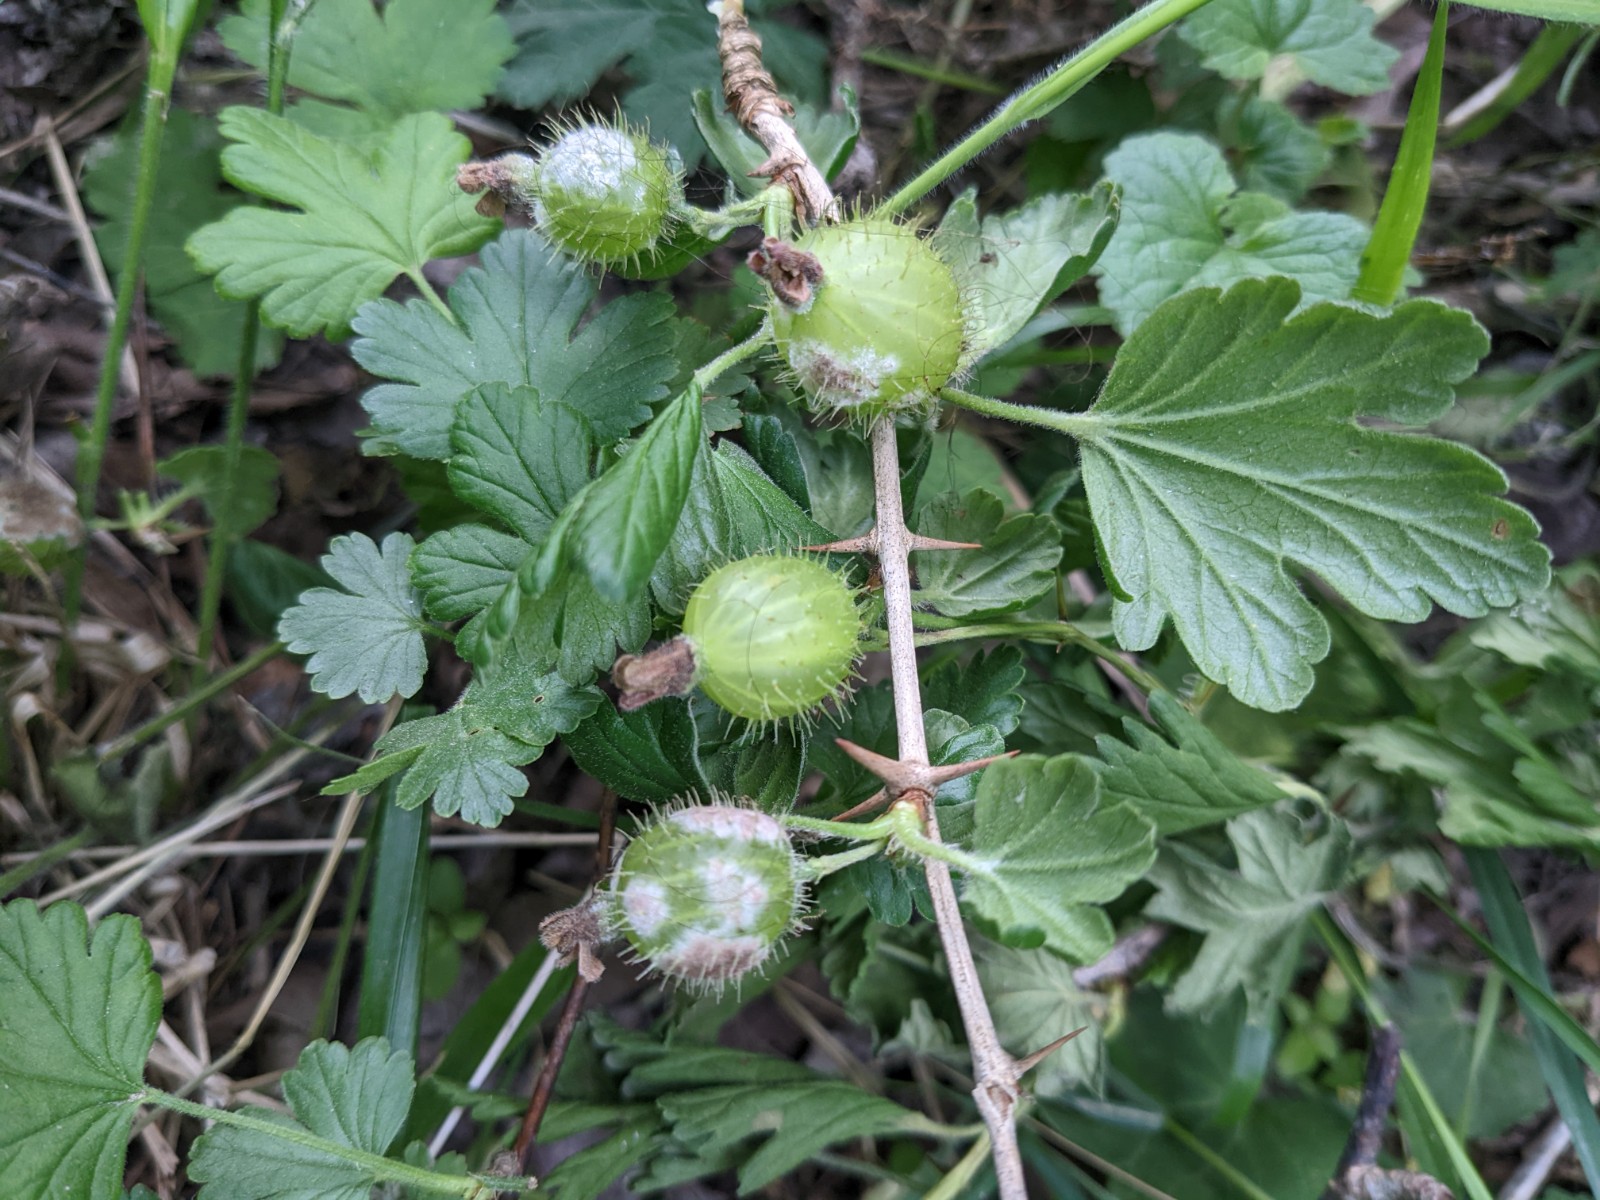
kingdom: Fungi
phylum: Ascomycota
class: Leotiomycetes
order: Helotiales
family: Erysiphaceae
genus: Podosphaera
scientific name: Podosphaera mors-uvae
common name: American gooseberry mildew
